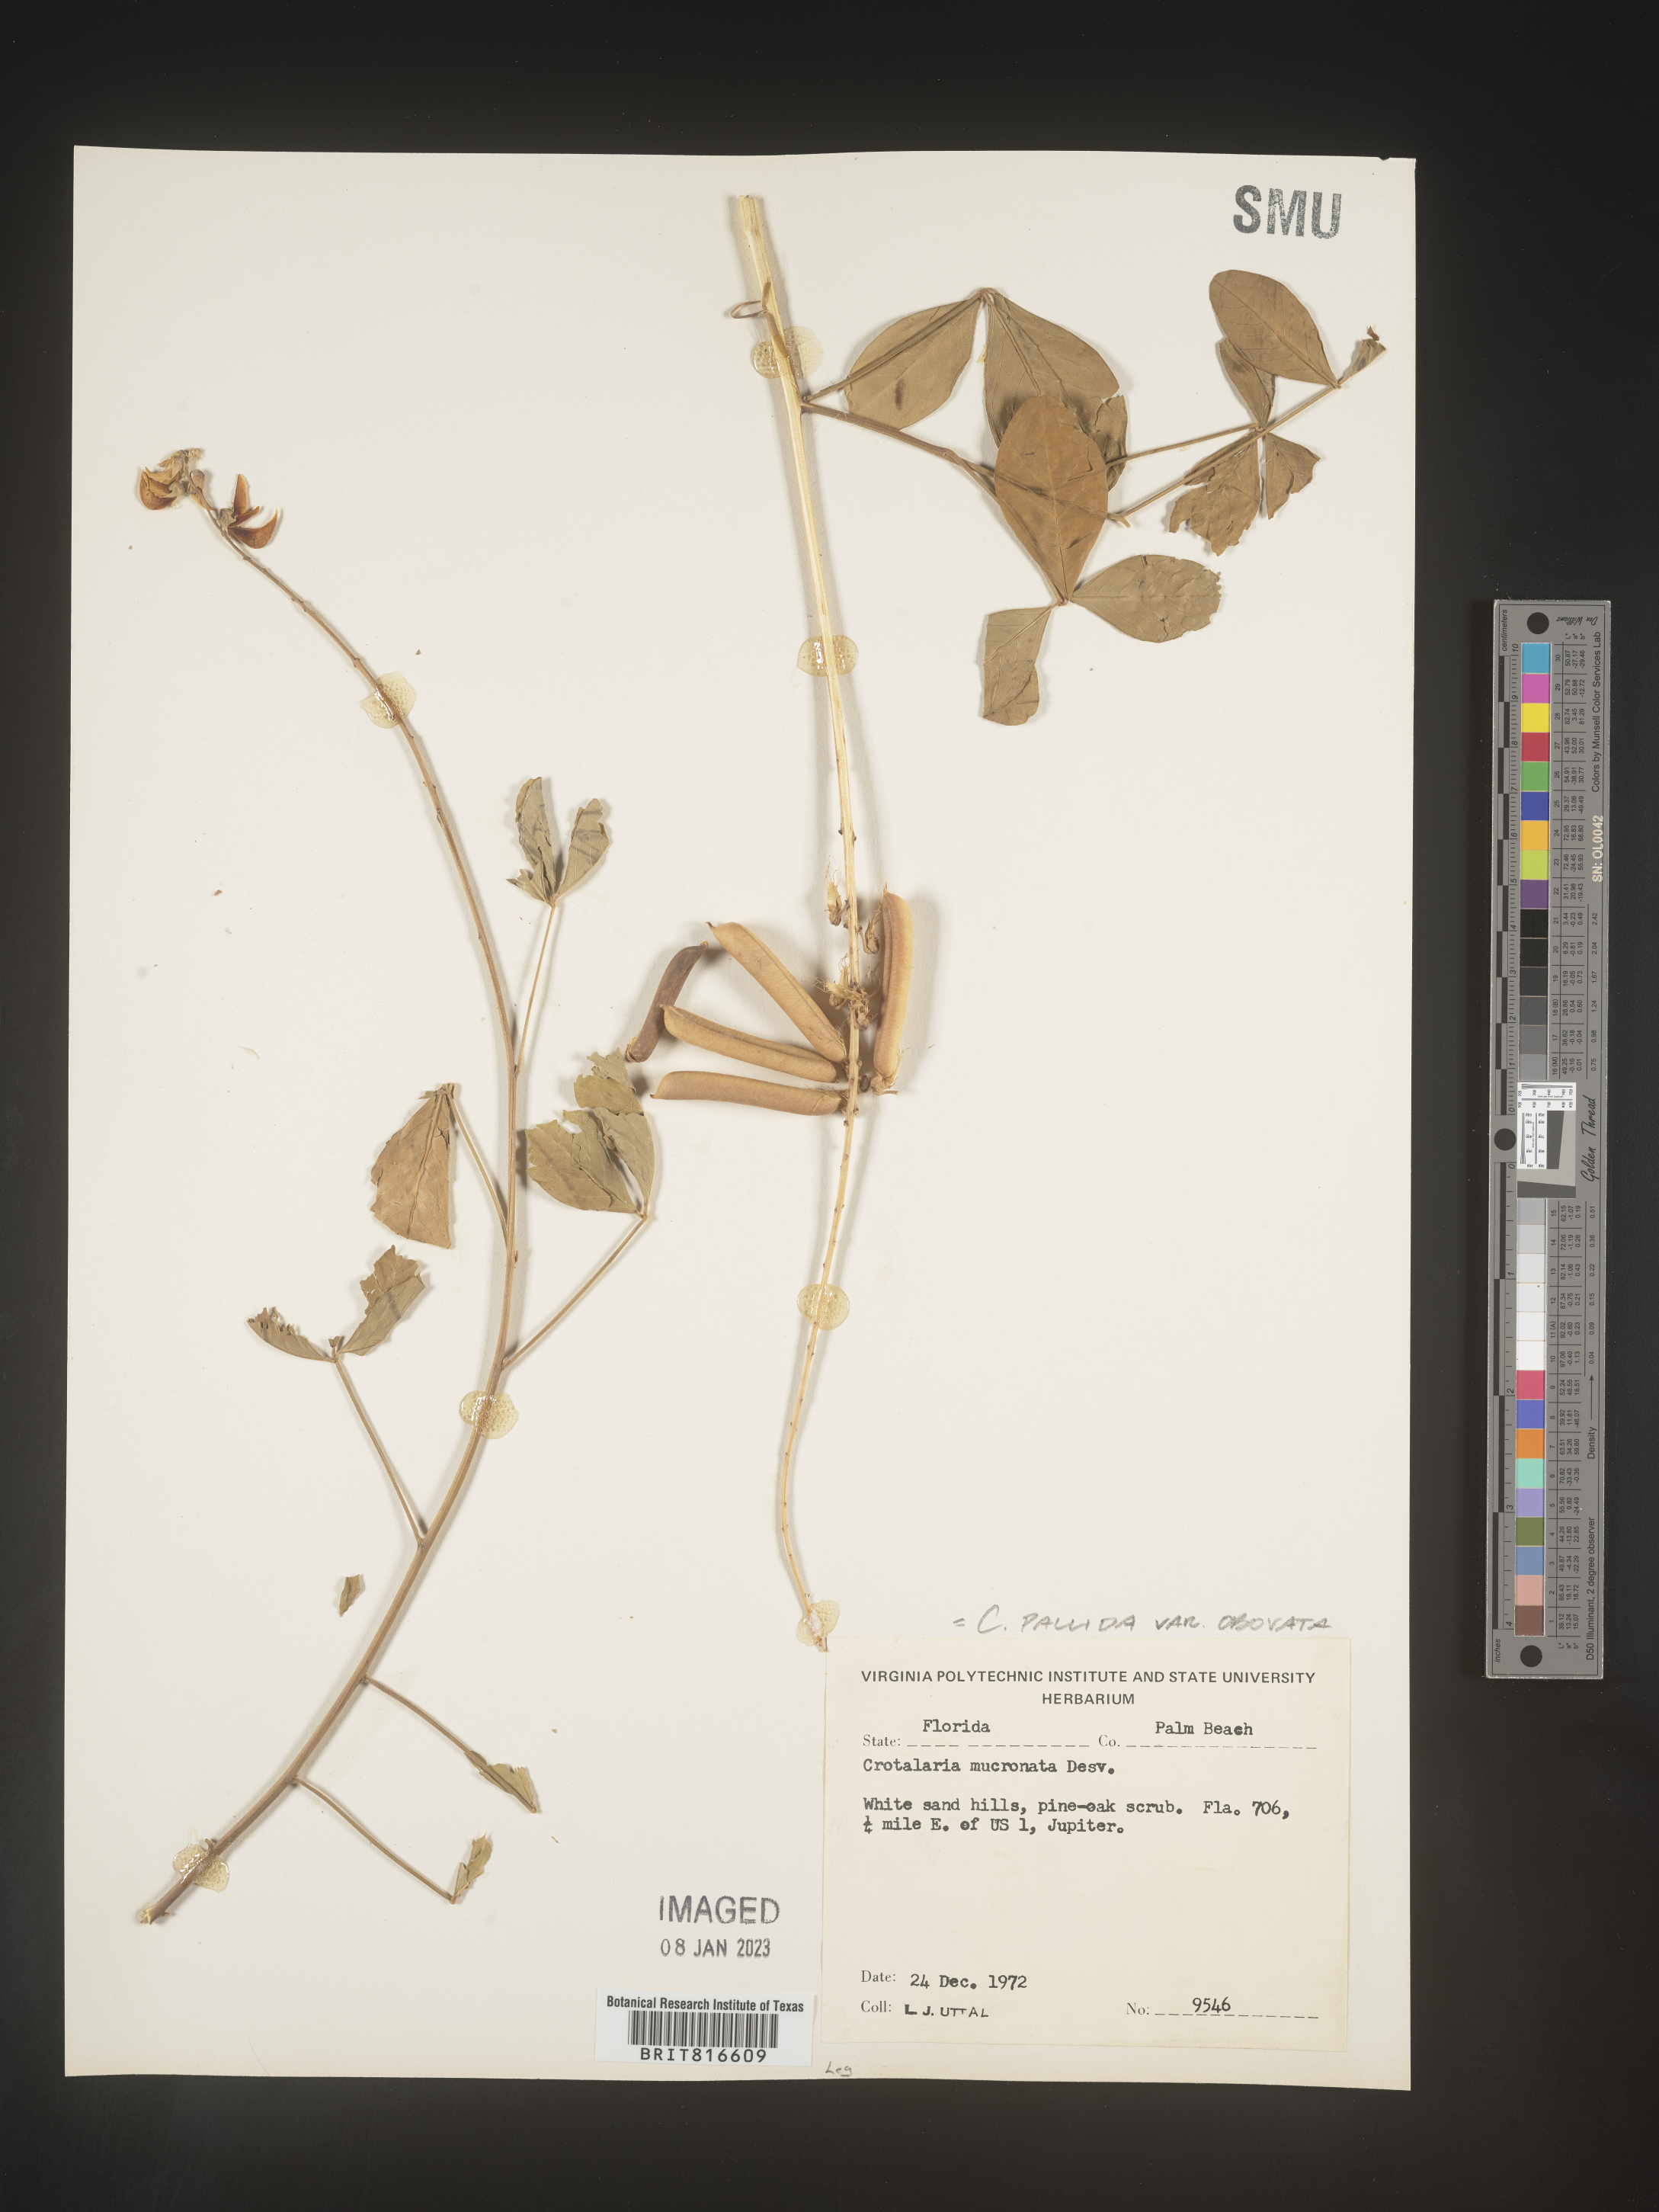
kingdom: Plantae
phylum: Tracheophyta
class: Magnoliopsida
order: Fabales
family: Fabaceae
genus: Crotalaria
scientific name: Crotalaria linifolia
